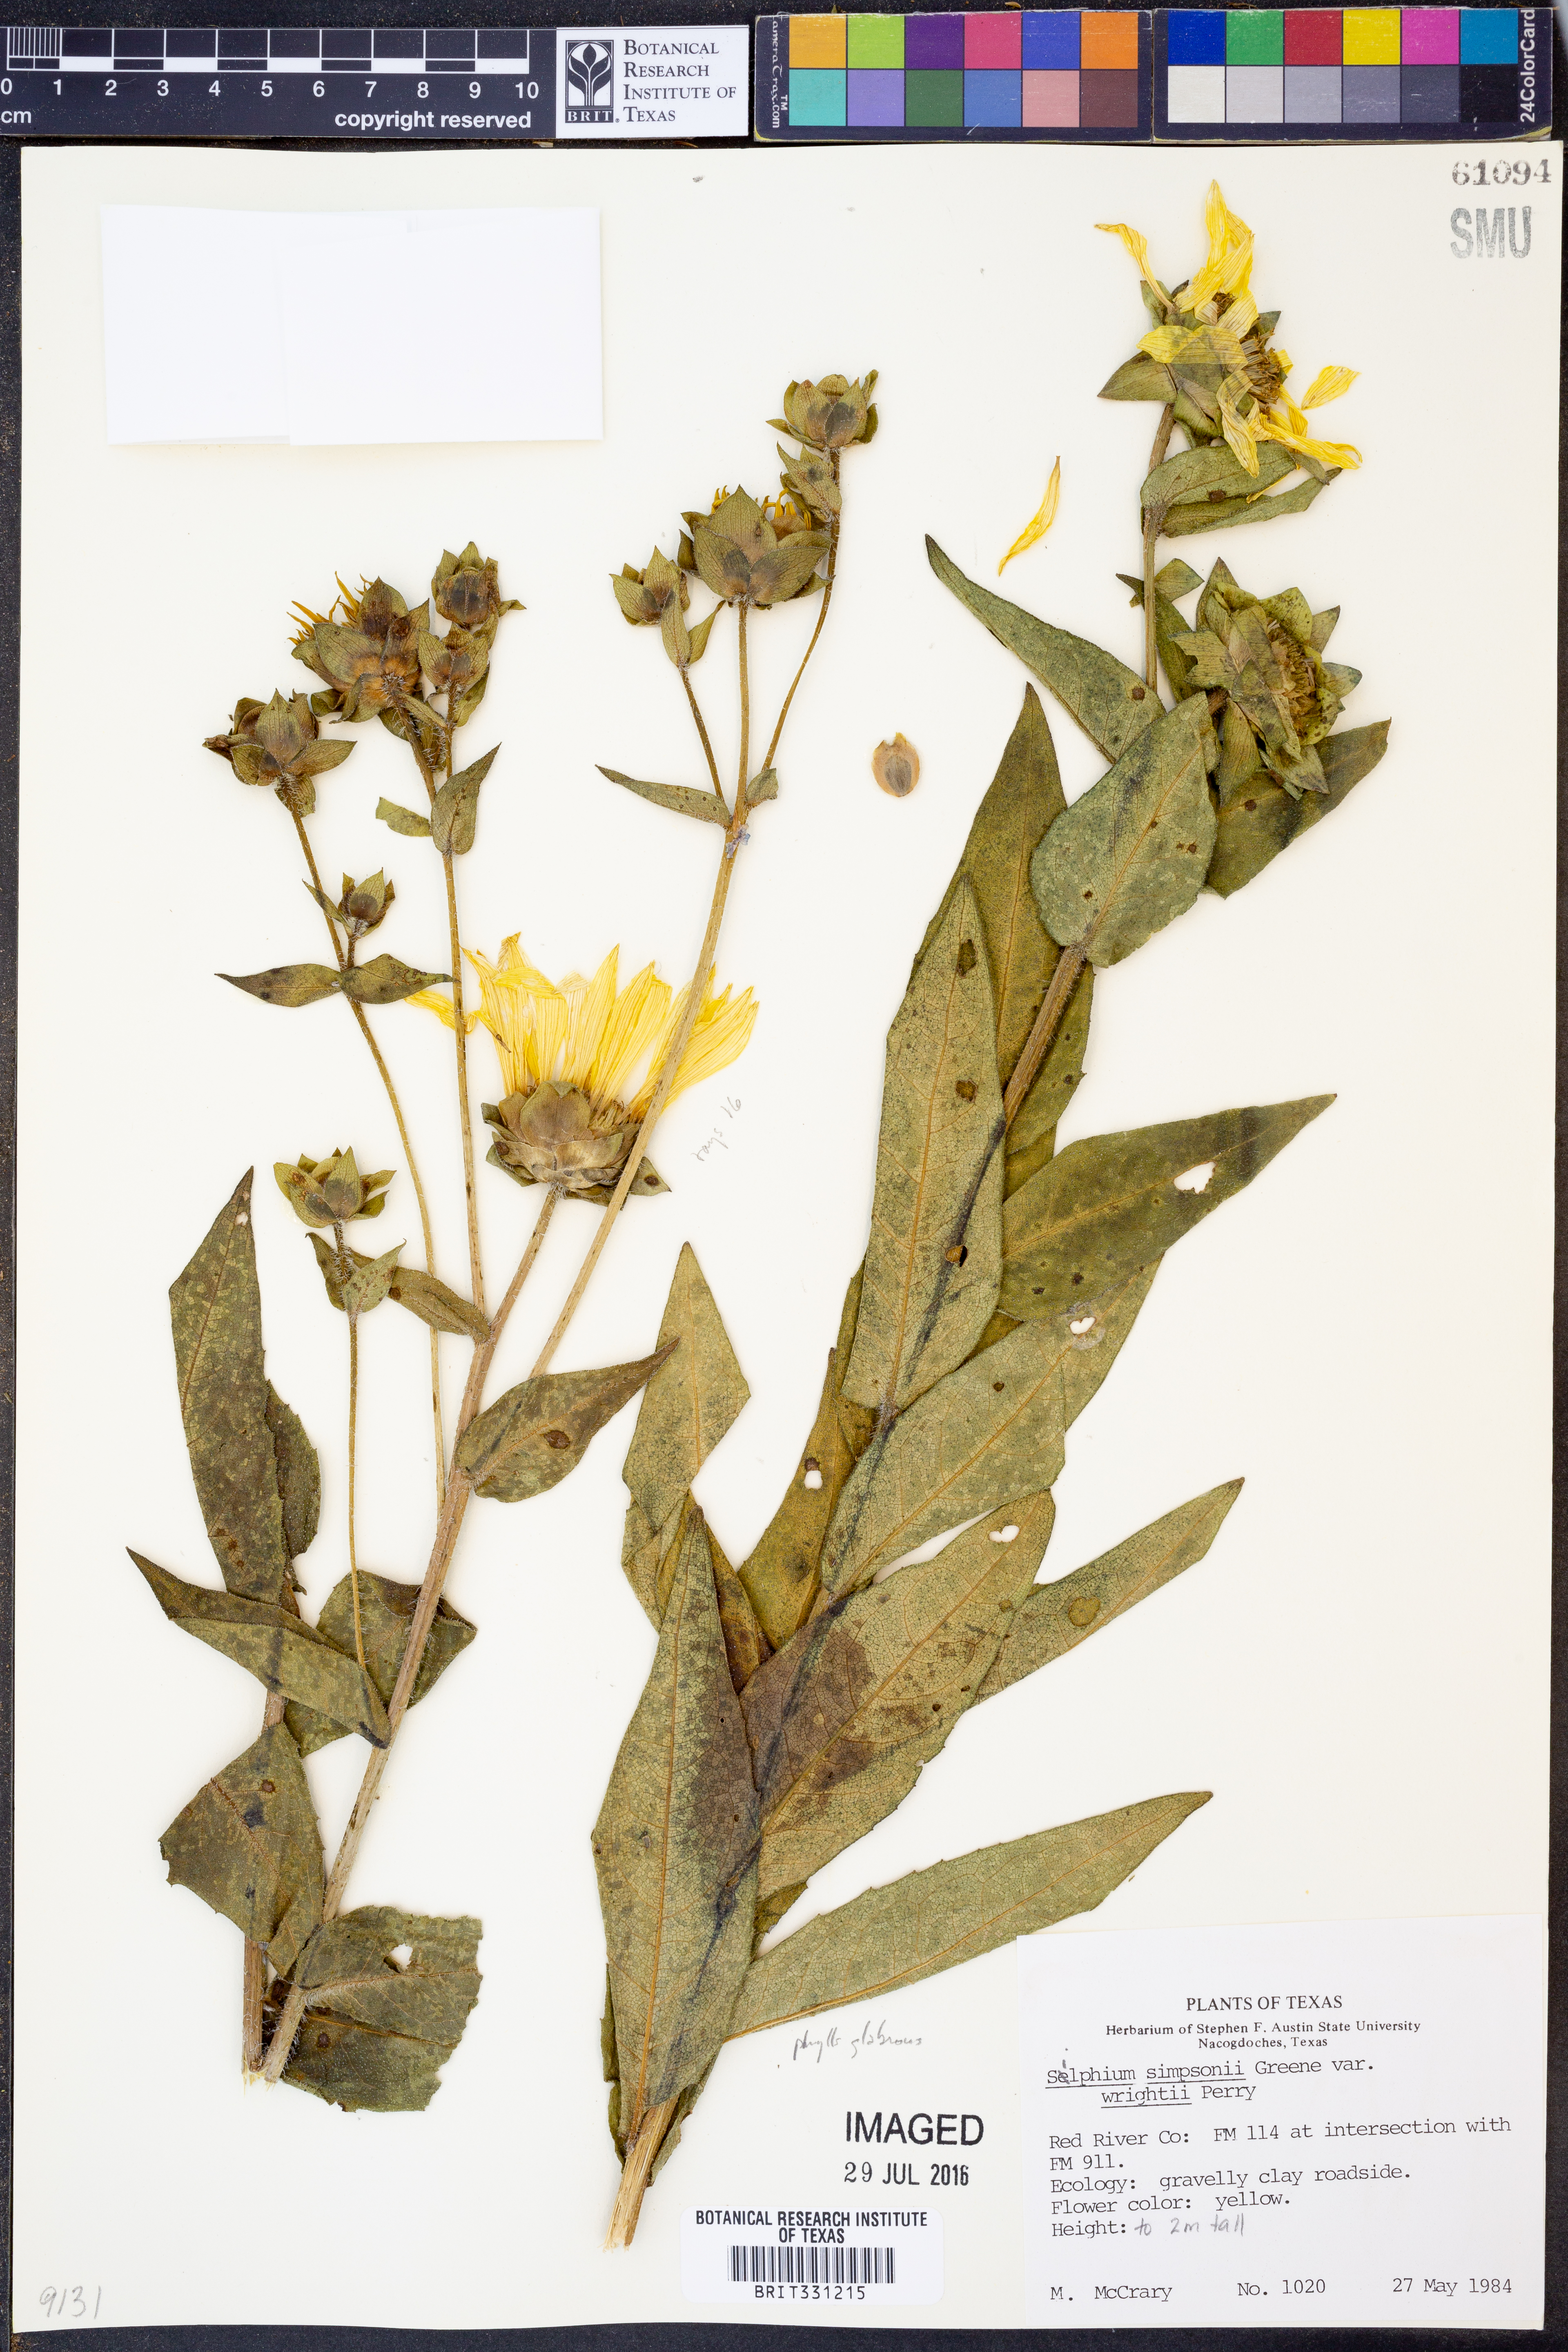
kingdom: Plantae
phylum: Tracheophyta
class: Magnoliopsida
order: Asterales
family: Asteraceae
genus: Silphium
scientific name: Silphium radula
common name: Roughleaf rosinweed
